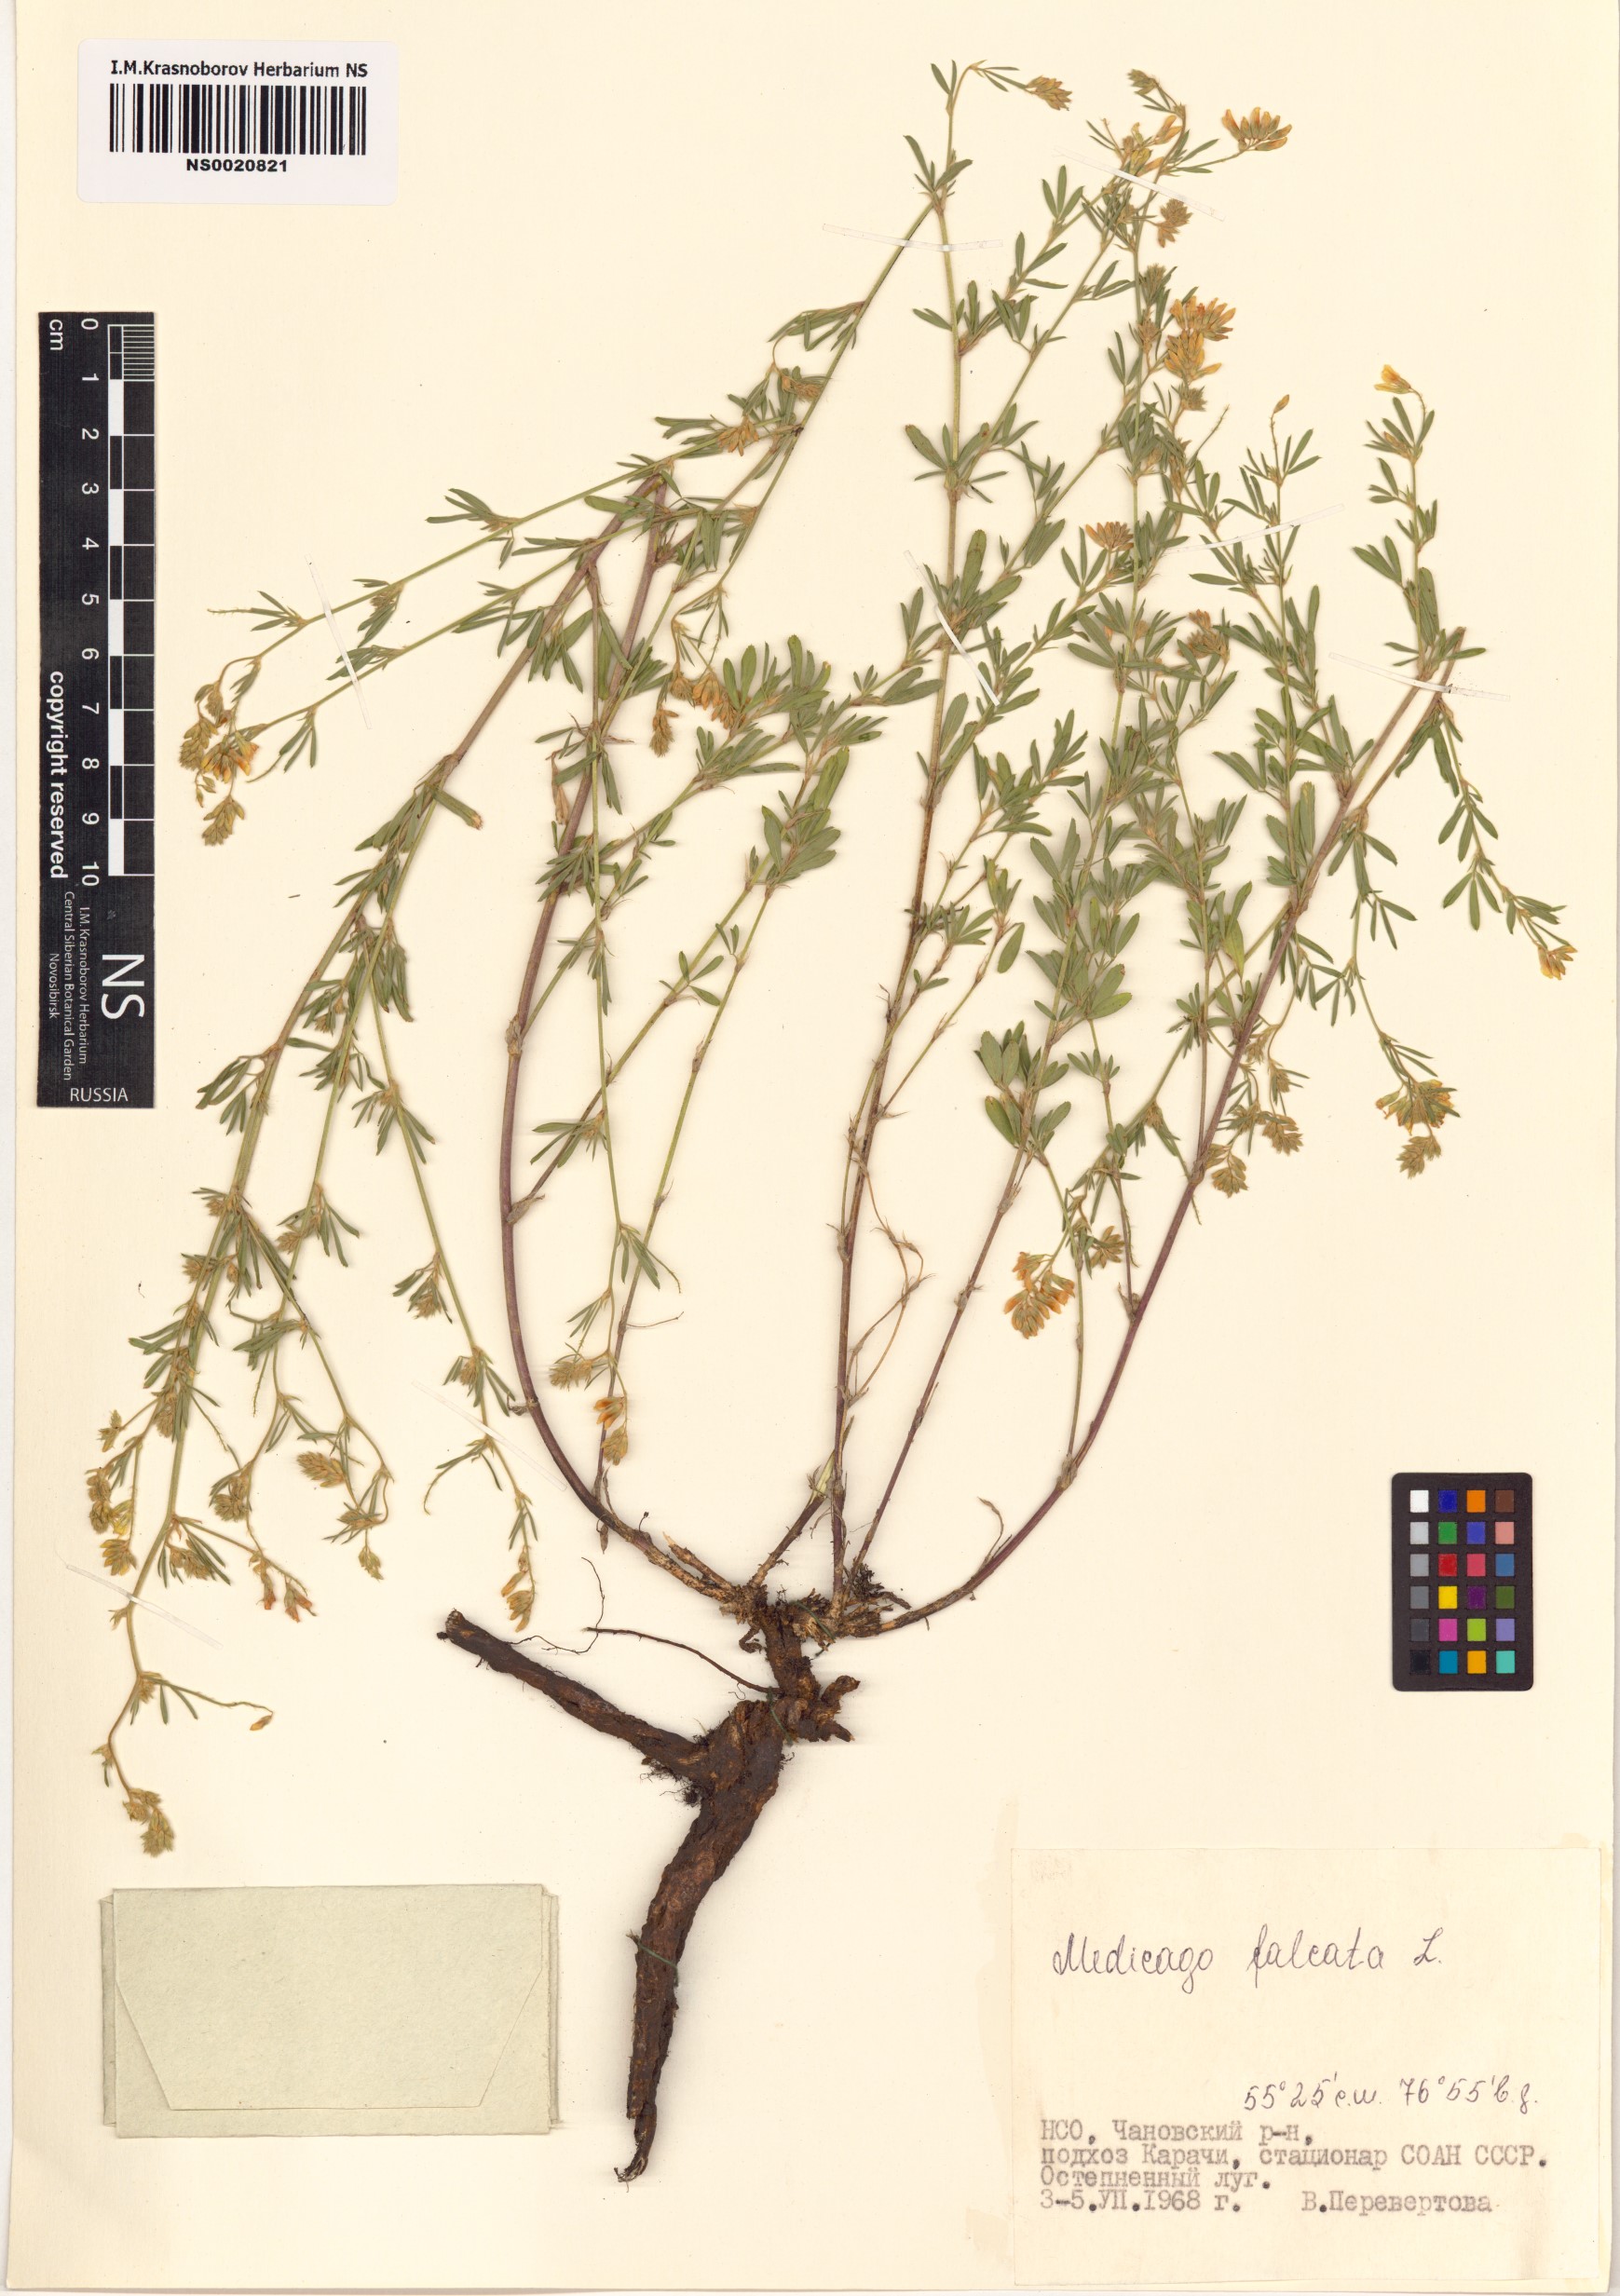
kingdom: Plantae
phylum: Tracheophyta
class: Magnoliopsida
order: Fabales
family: Fabaceae
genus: Medicago
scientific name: Medicago falcata
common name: Sickle medick
